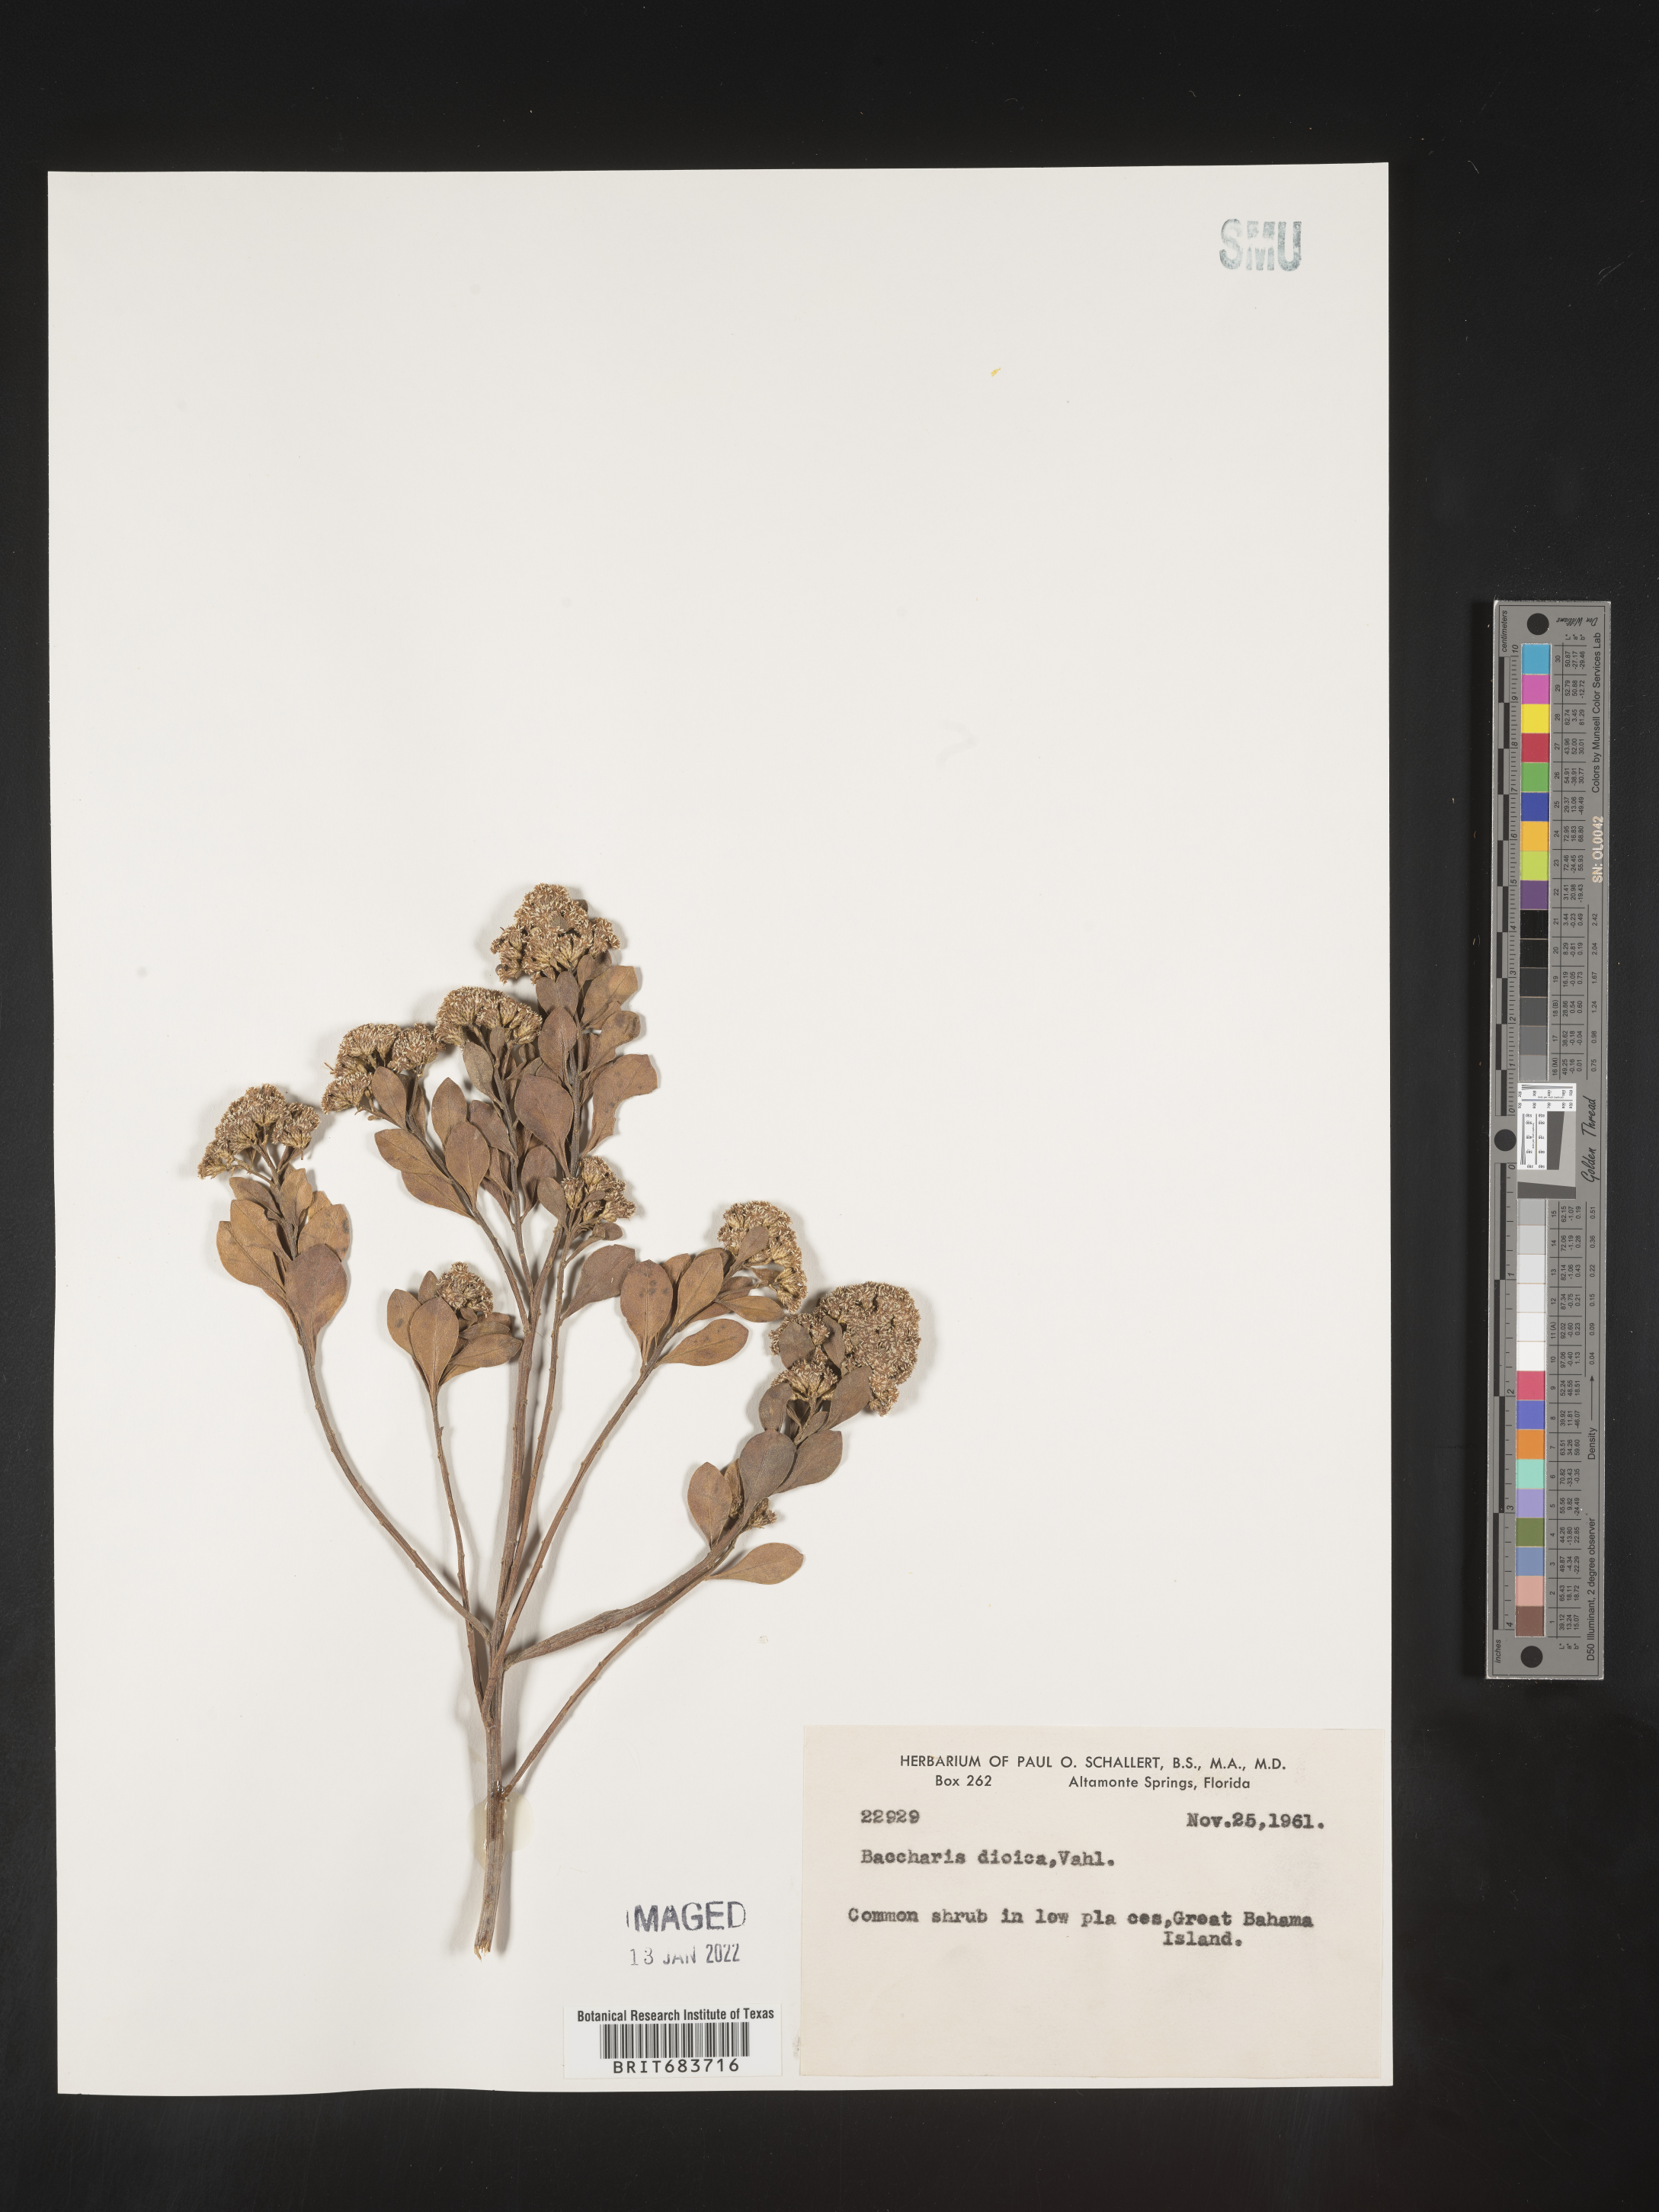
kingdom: Plantae
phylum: Tracheophyta
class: Magnoliopsida
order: Asterales
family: Asteraceae
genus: Baccharis
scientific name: Baccharis
